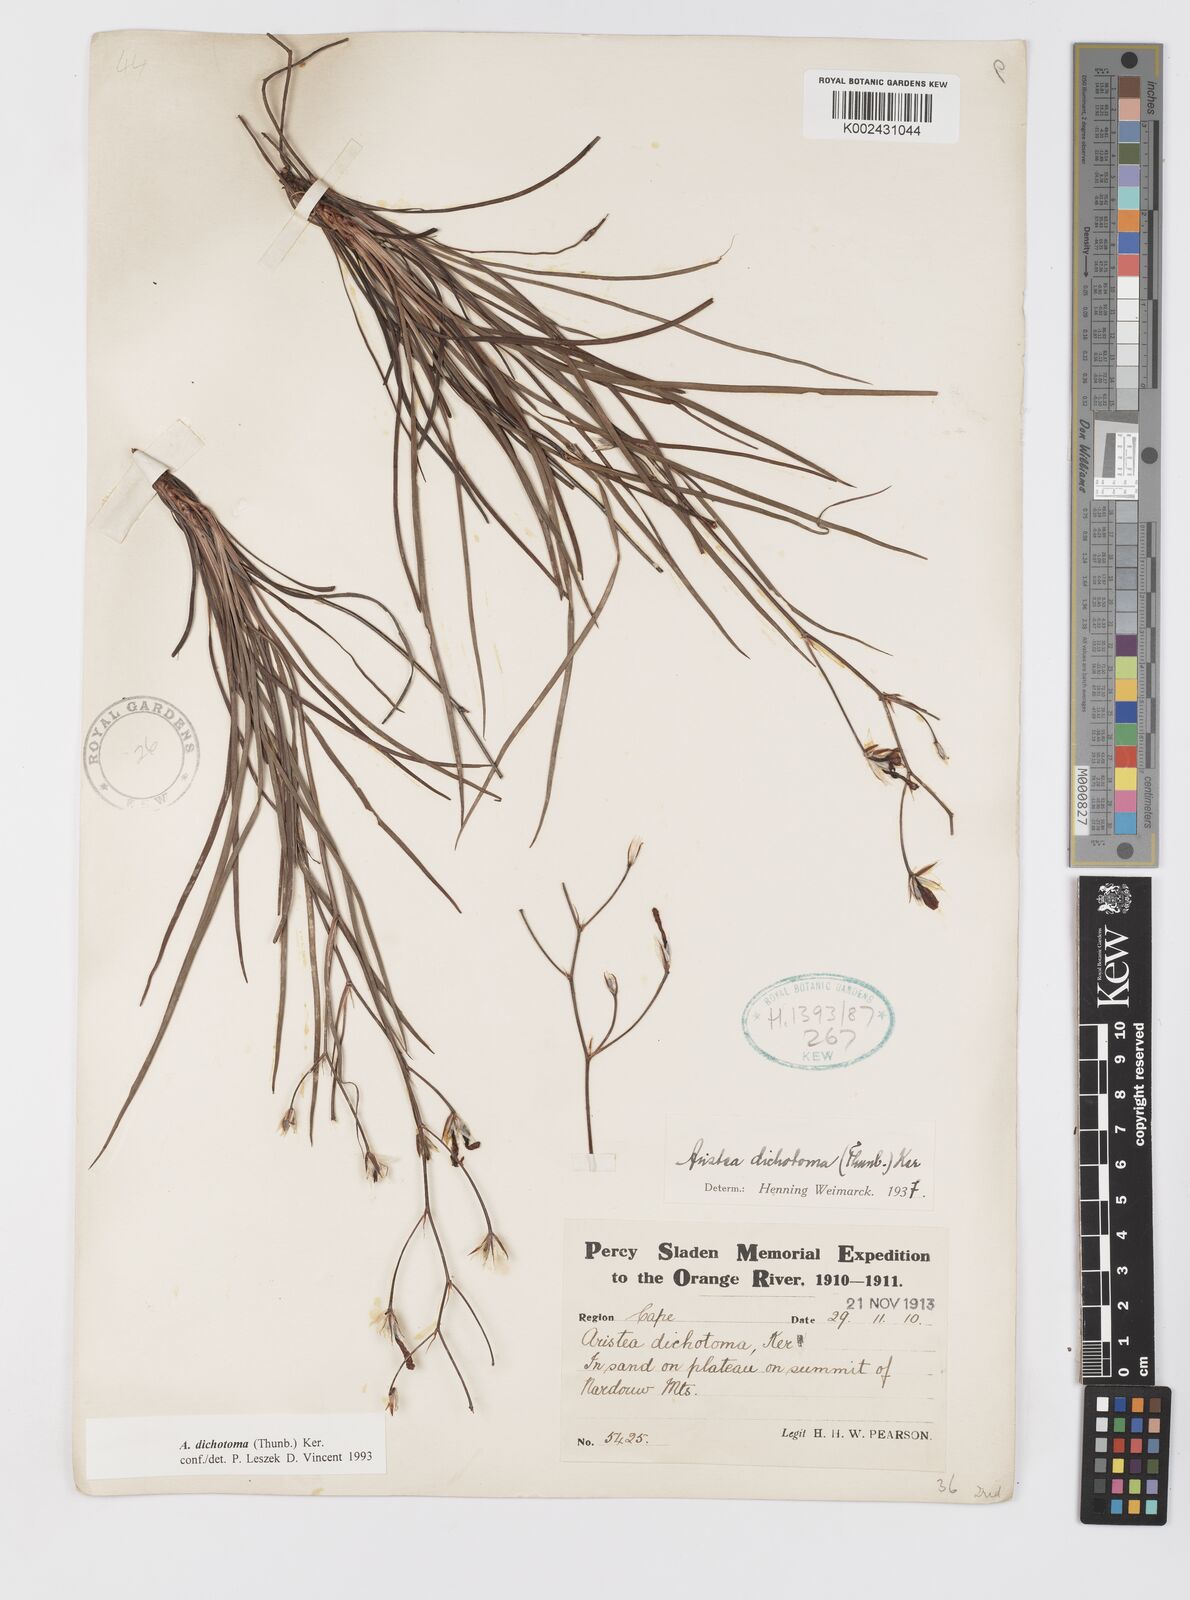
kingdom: Plantae
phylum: Tracheophyta
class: Liliopsida
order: Asparagales
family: Iridaceae
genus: Aristea
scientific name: Aristea dichotoma
